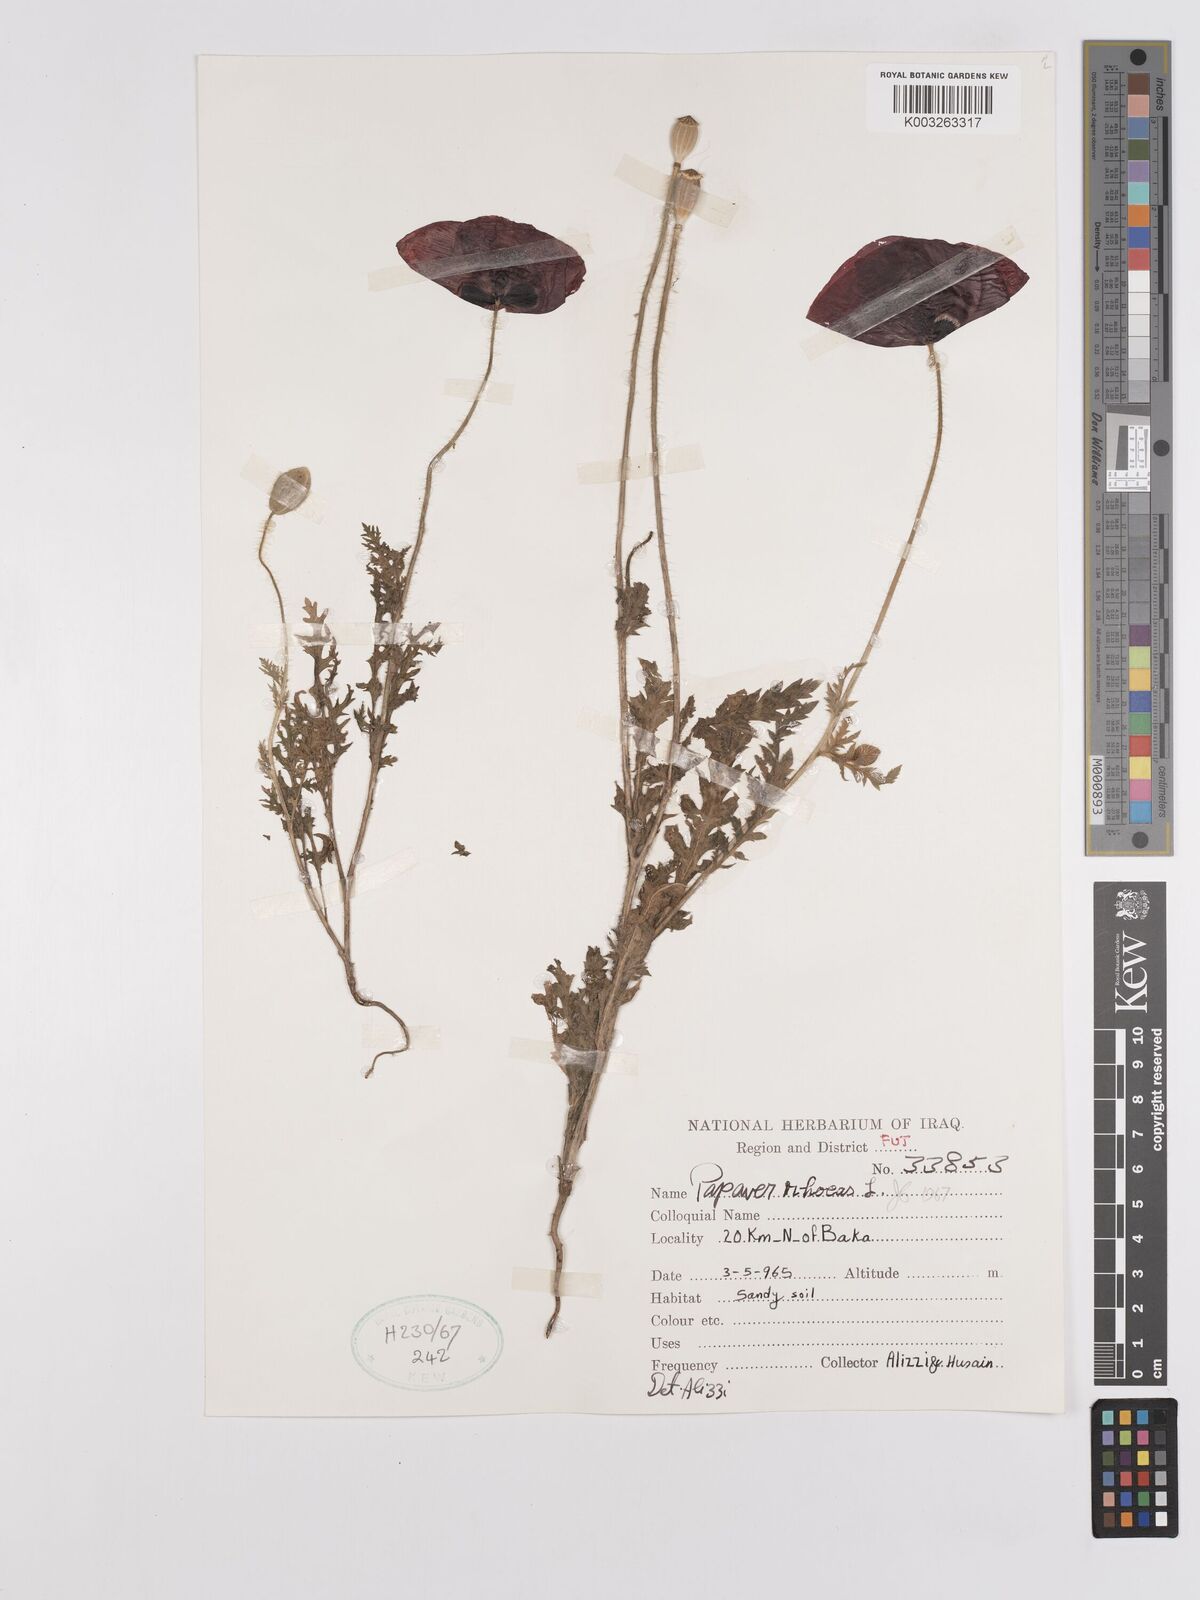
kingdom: Plantae
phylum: Tracheophyta
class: Magnoliopsida
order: Ranunculales
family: Papaveraceae
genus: Papaver
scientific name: Papaver rhoeas
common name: Corn poppy
